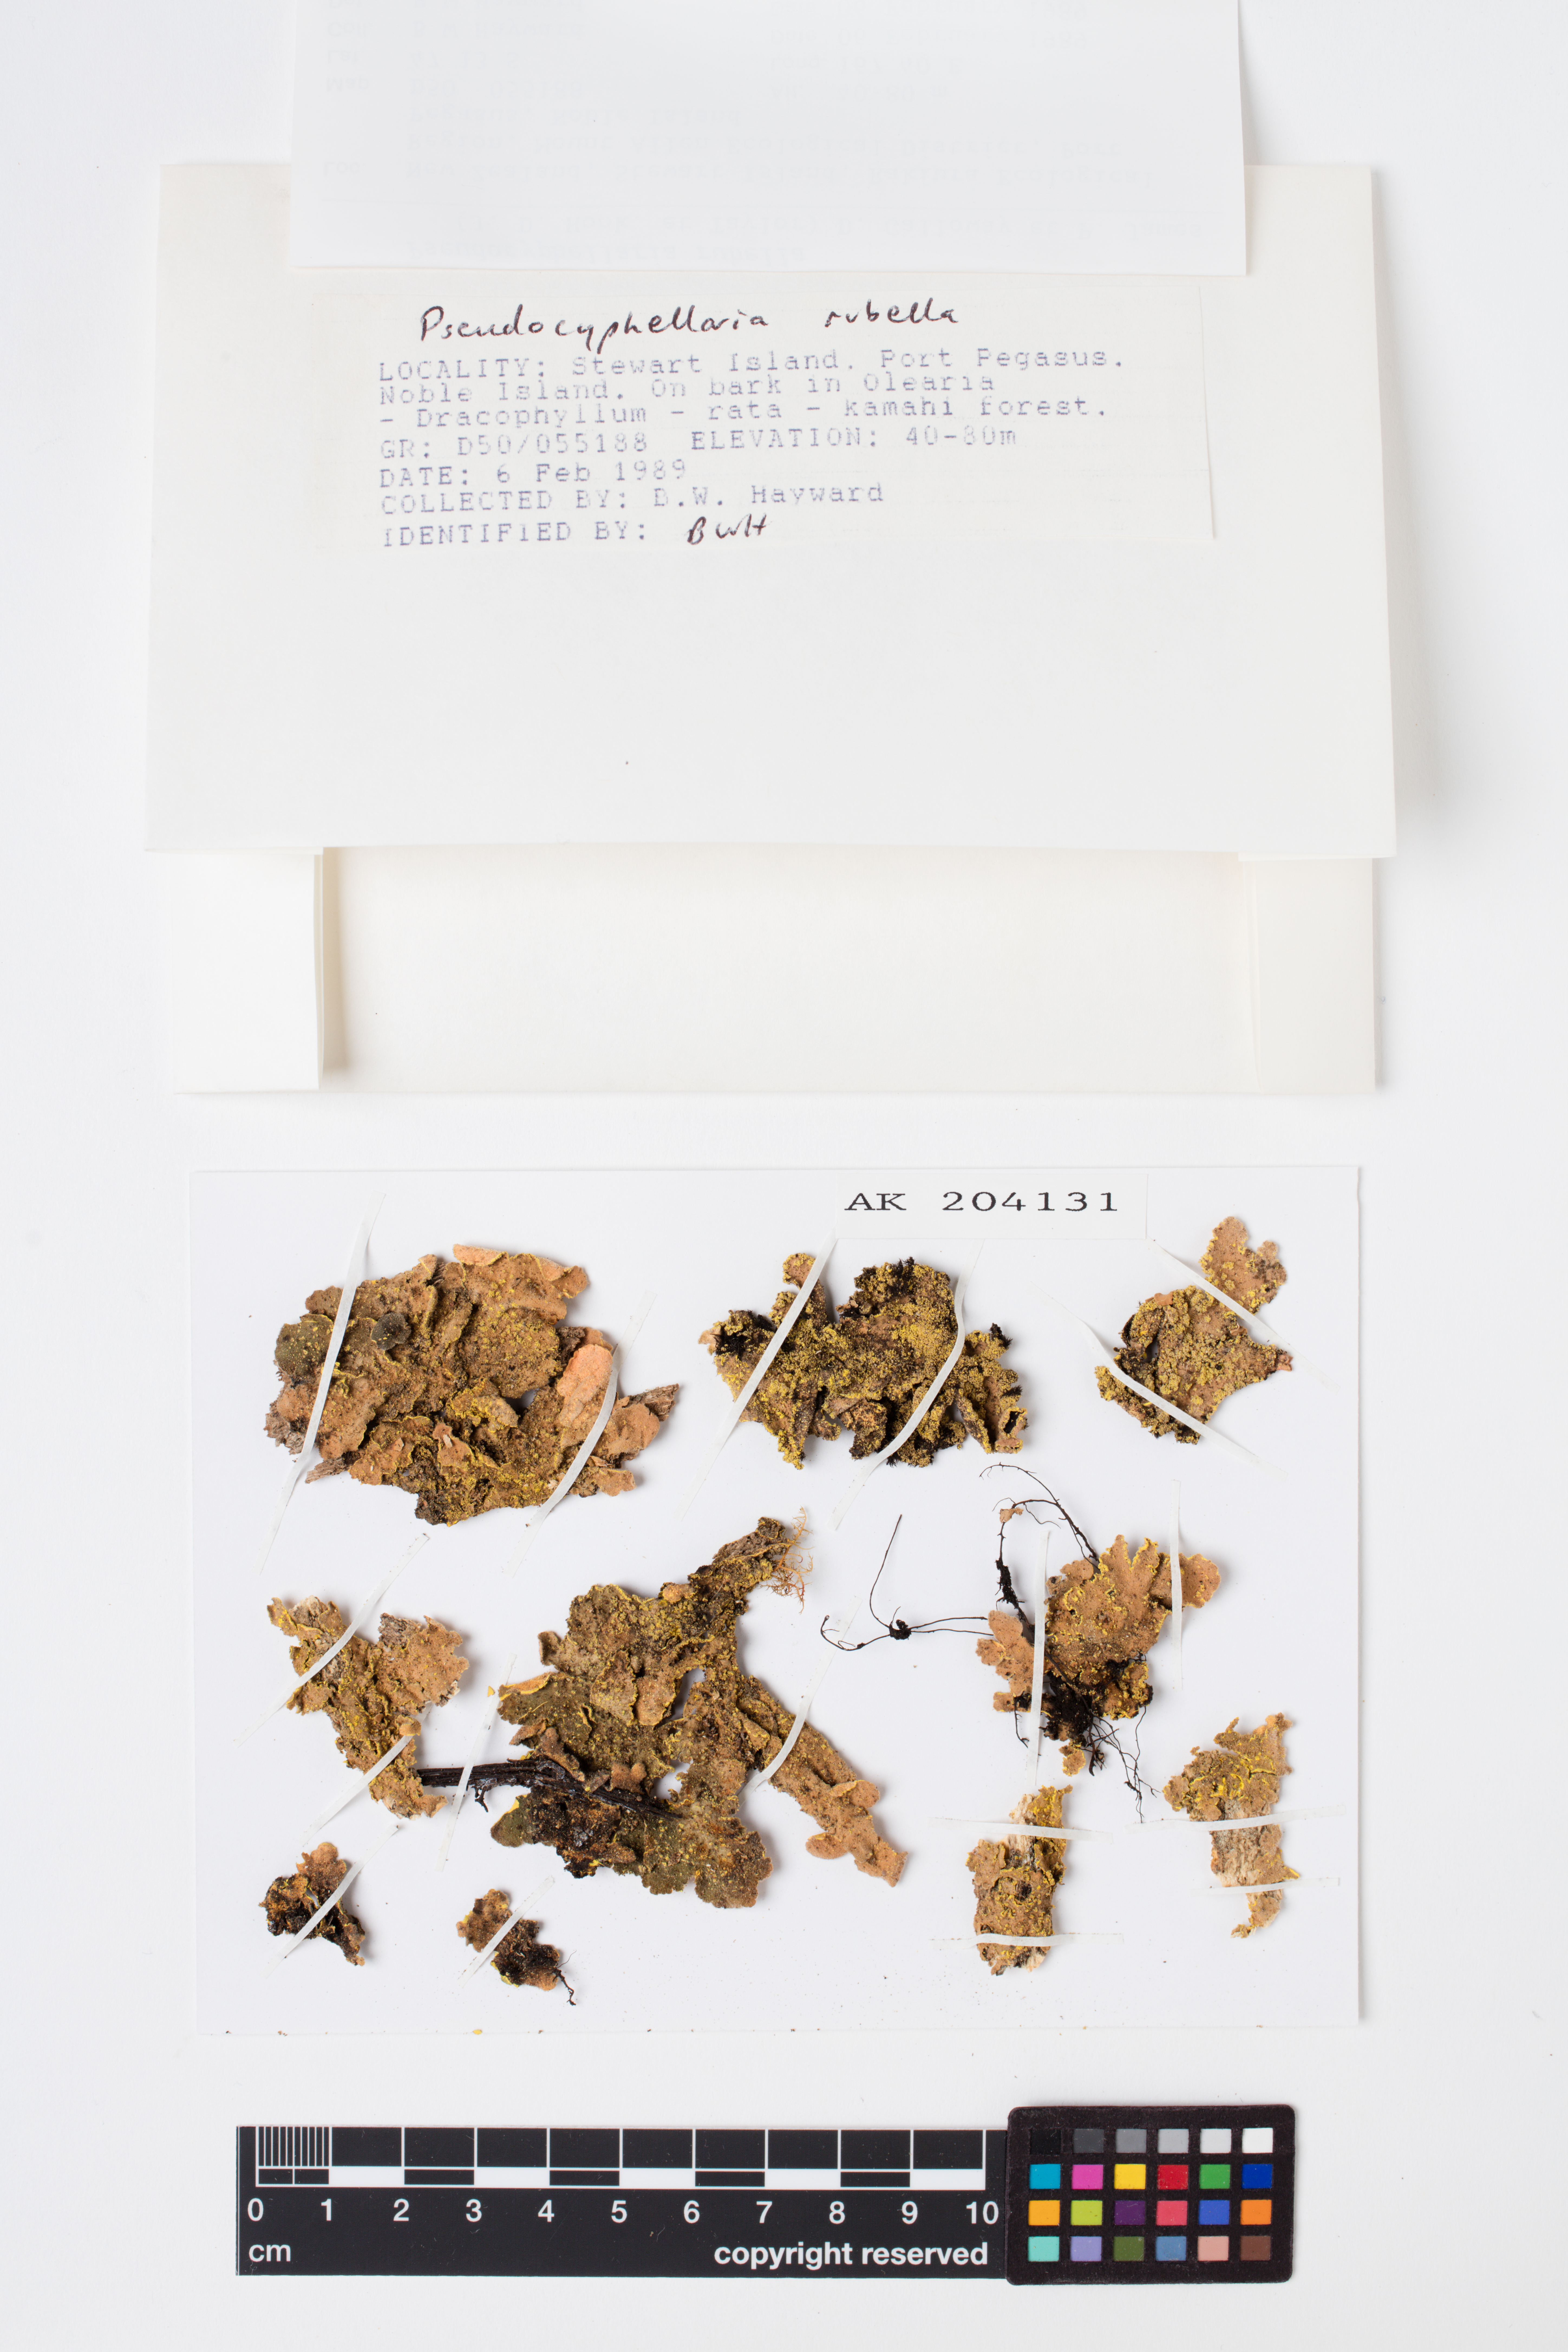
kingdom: Fungi
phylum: Ascomycota
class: Lecanoromycetes
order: Peltigerales
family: Lobariaceae
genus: Pseudocyphellaria
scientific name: Pseudocyphellaria rubella
